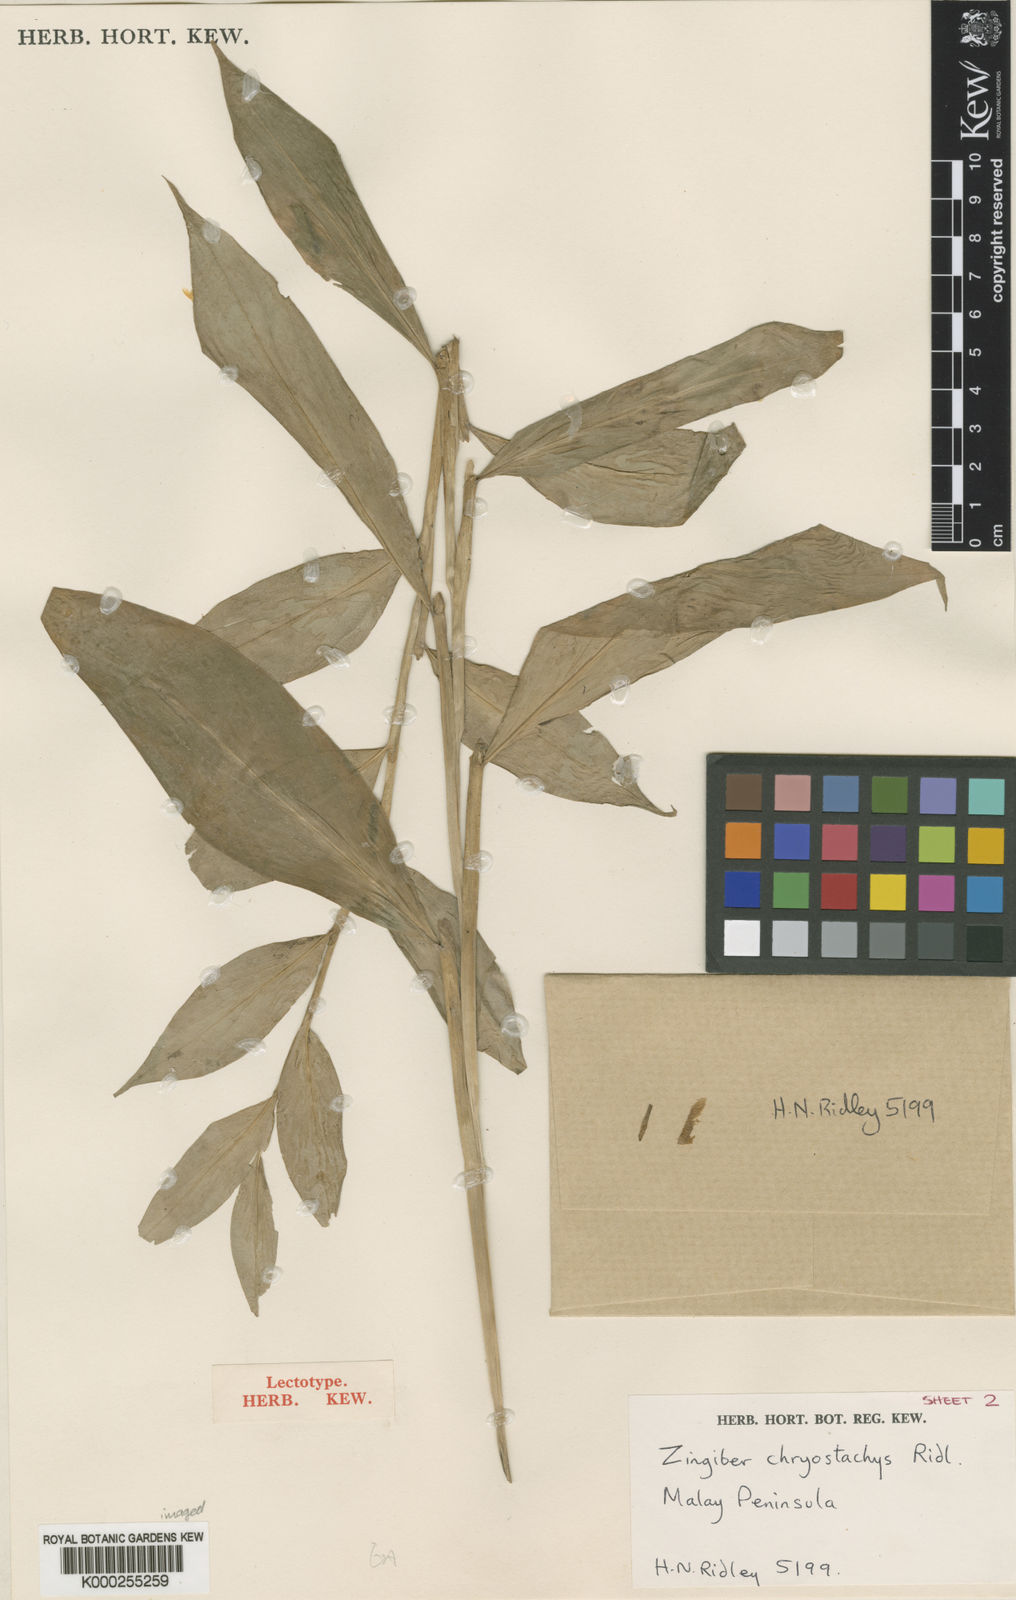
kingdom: Plantae
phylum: Tracheophyta
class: Liliopsida
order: Zingiberales
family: Zingiberaceae
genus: Zingiber
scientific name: Zingiber chrysostachys
